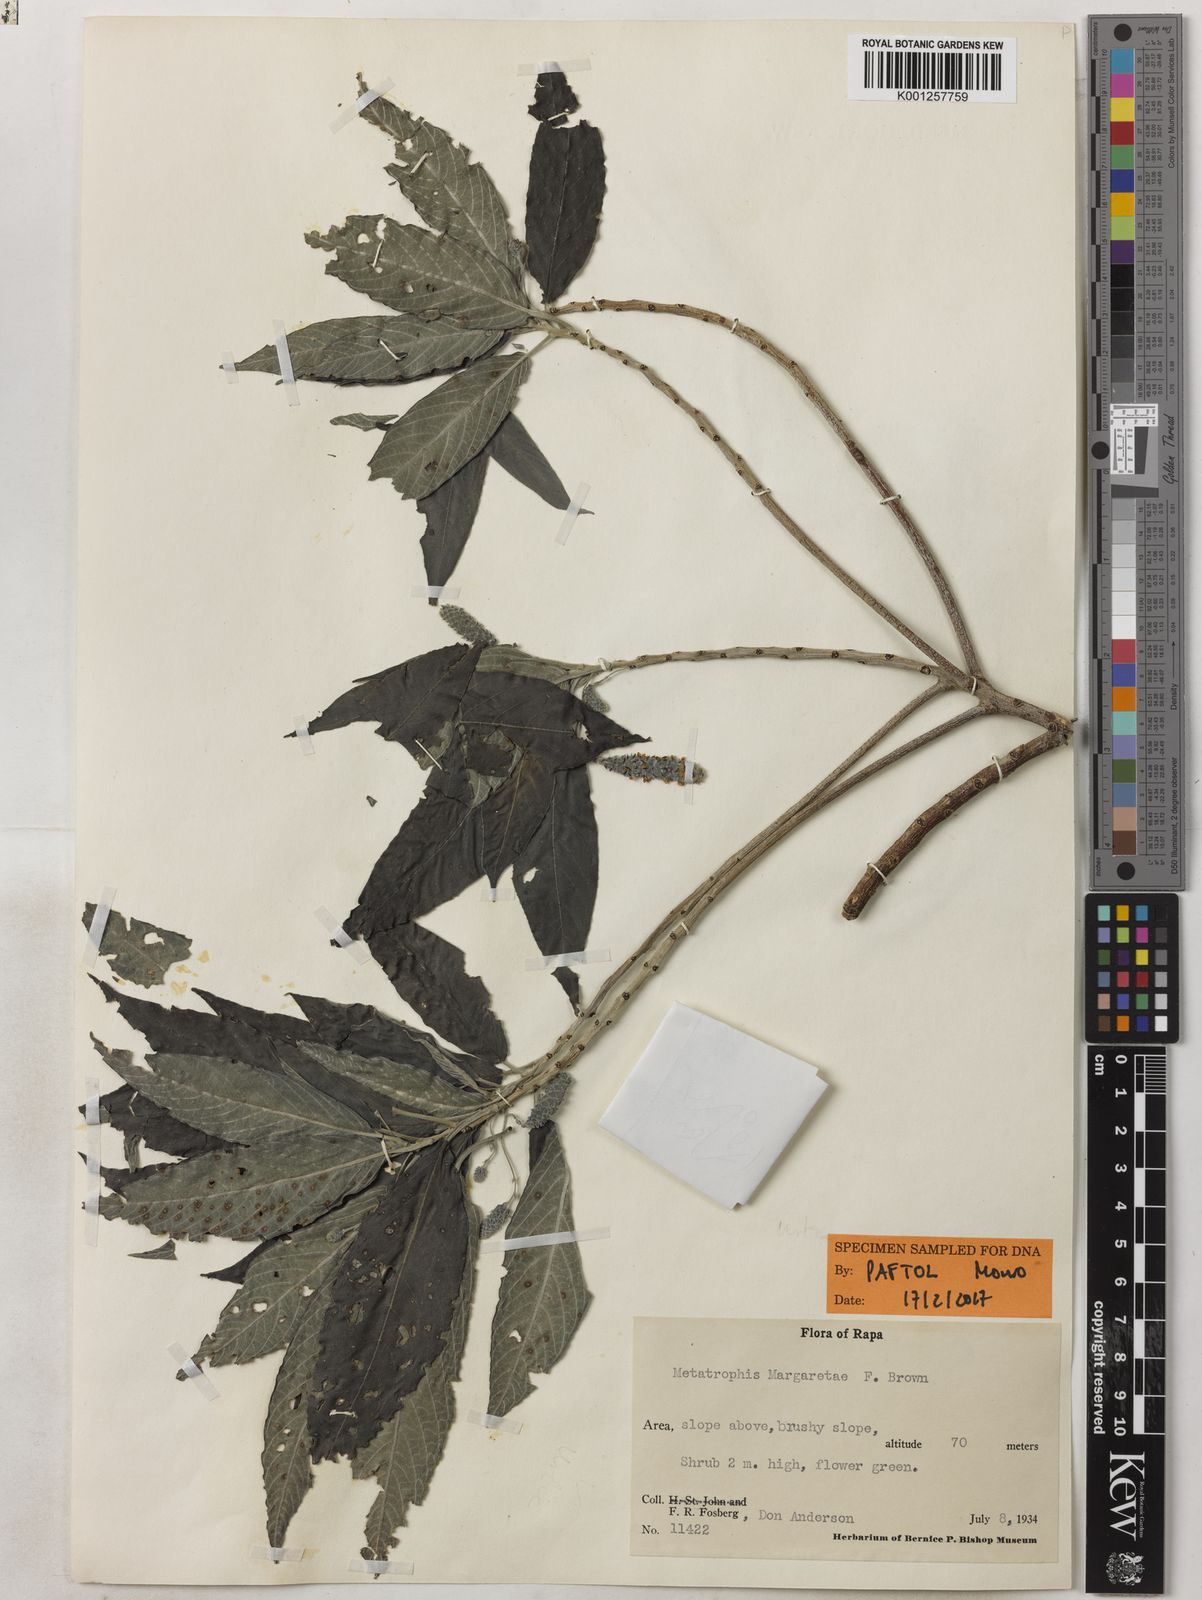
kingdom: Plantae
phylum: Tracheophyta
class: Magnoliopsida
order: Rosales
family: Urticaceae
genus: Metatrophis
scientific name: Metatrophis margaretae
